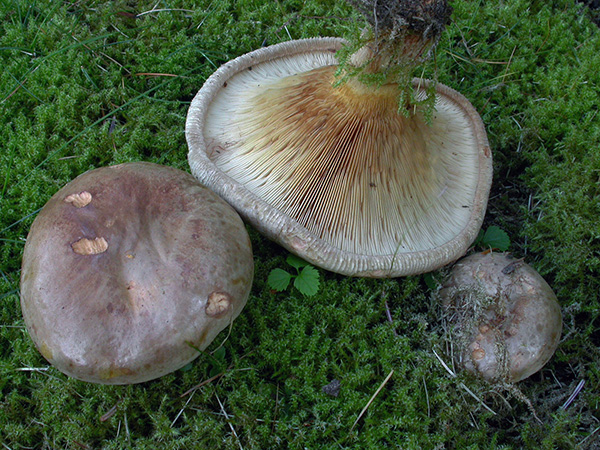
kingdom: Fungi
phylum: Basidiomycota
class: Agaricomycetes
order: Boletales
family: Paxillaceae
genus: Paxillus
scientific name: Paxillus involutus
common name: almindelig netbladhat
